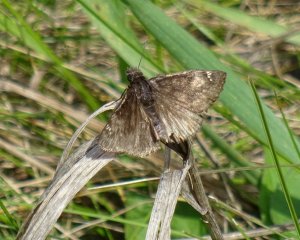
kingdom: Animalia
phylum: Arthropoda
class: Insecta
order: Lepidoptera
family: Hesperiidae
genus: Gesta
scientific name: Gesta
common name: Wild Indigo Duskywing
